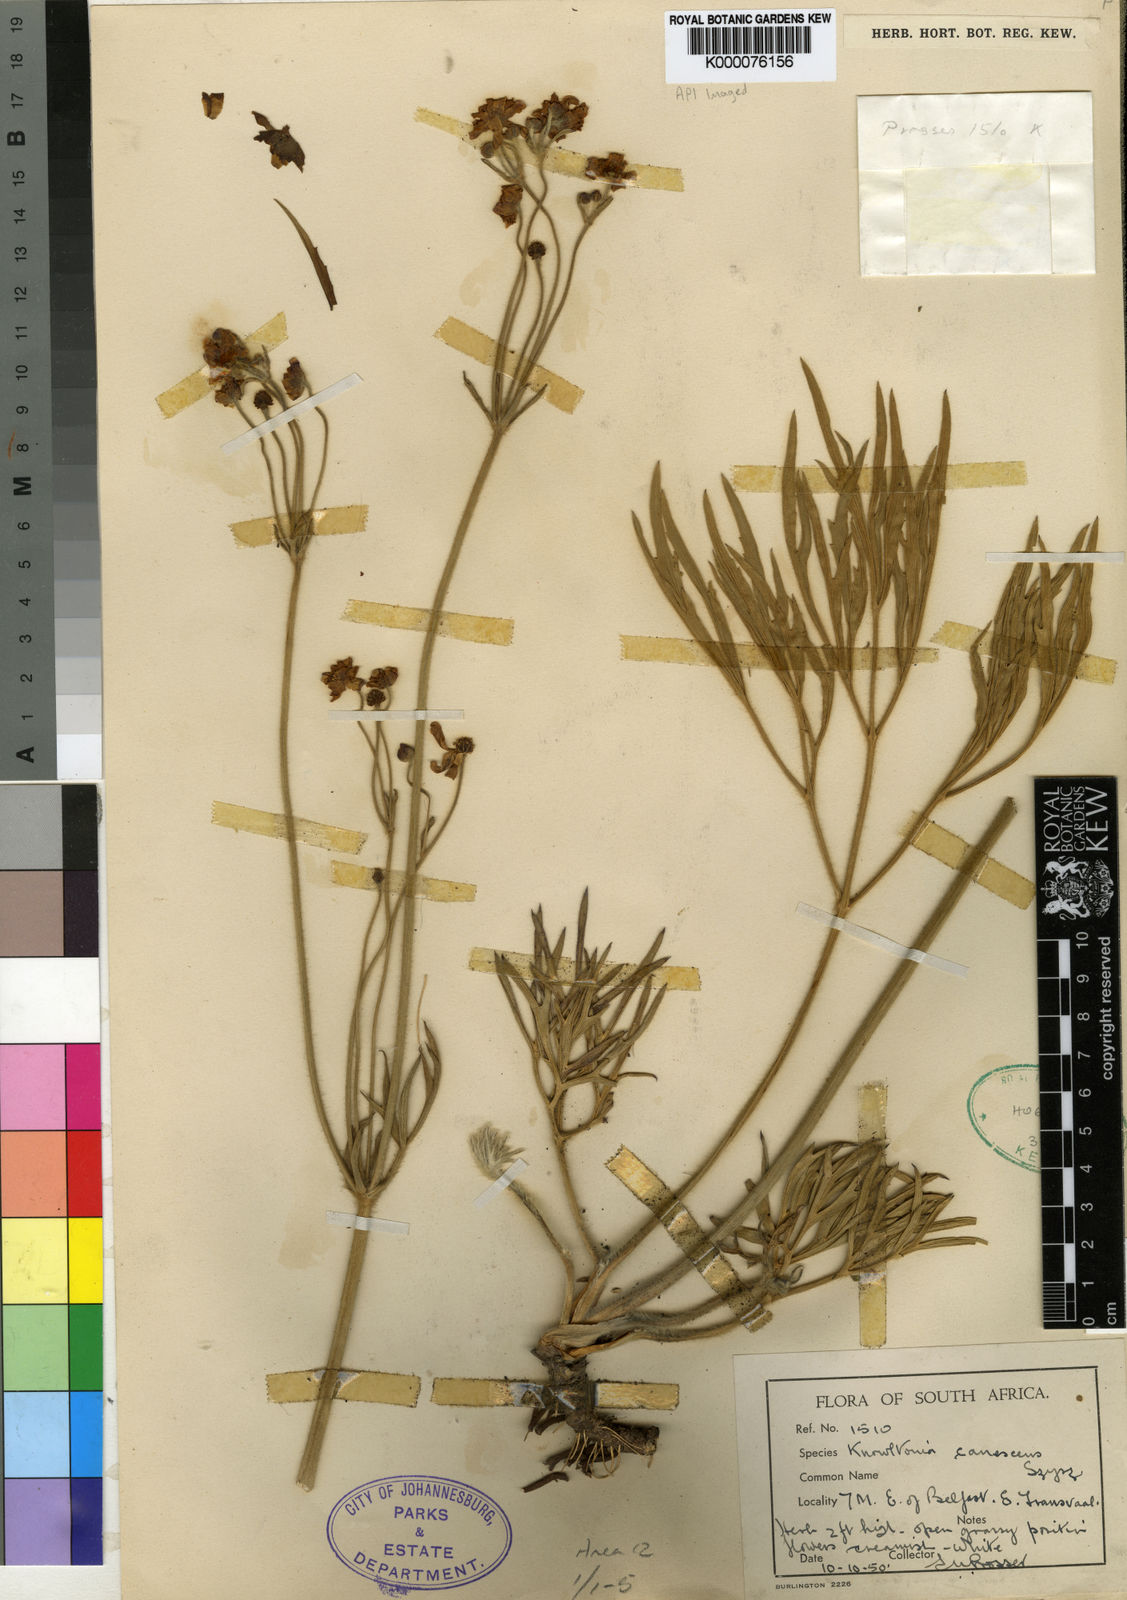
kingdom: Plantae
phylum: Tracheophyta
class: Magnoliopsida
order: Ranunculales
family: Ranunculaceae
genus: Knowltonia
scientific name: Knowltonia transvaalensis
